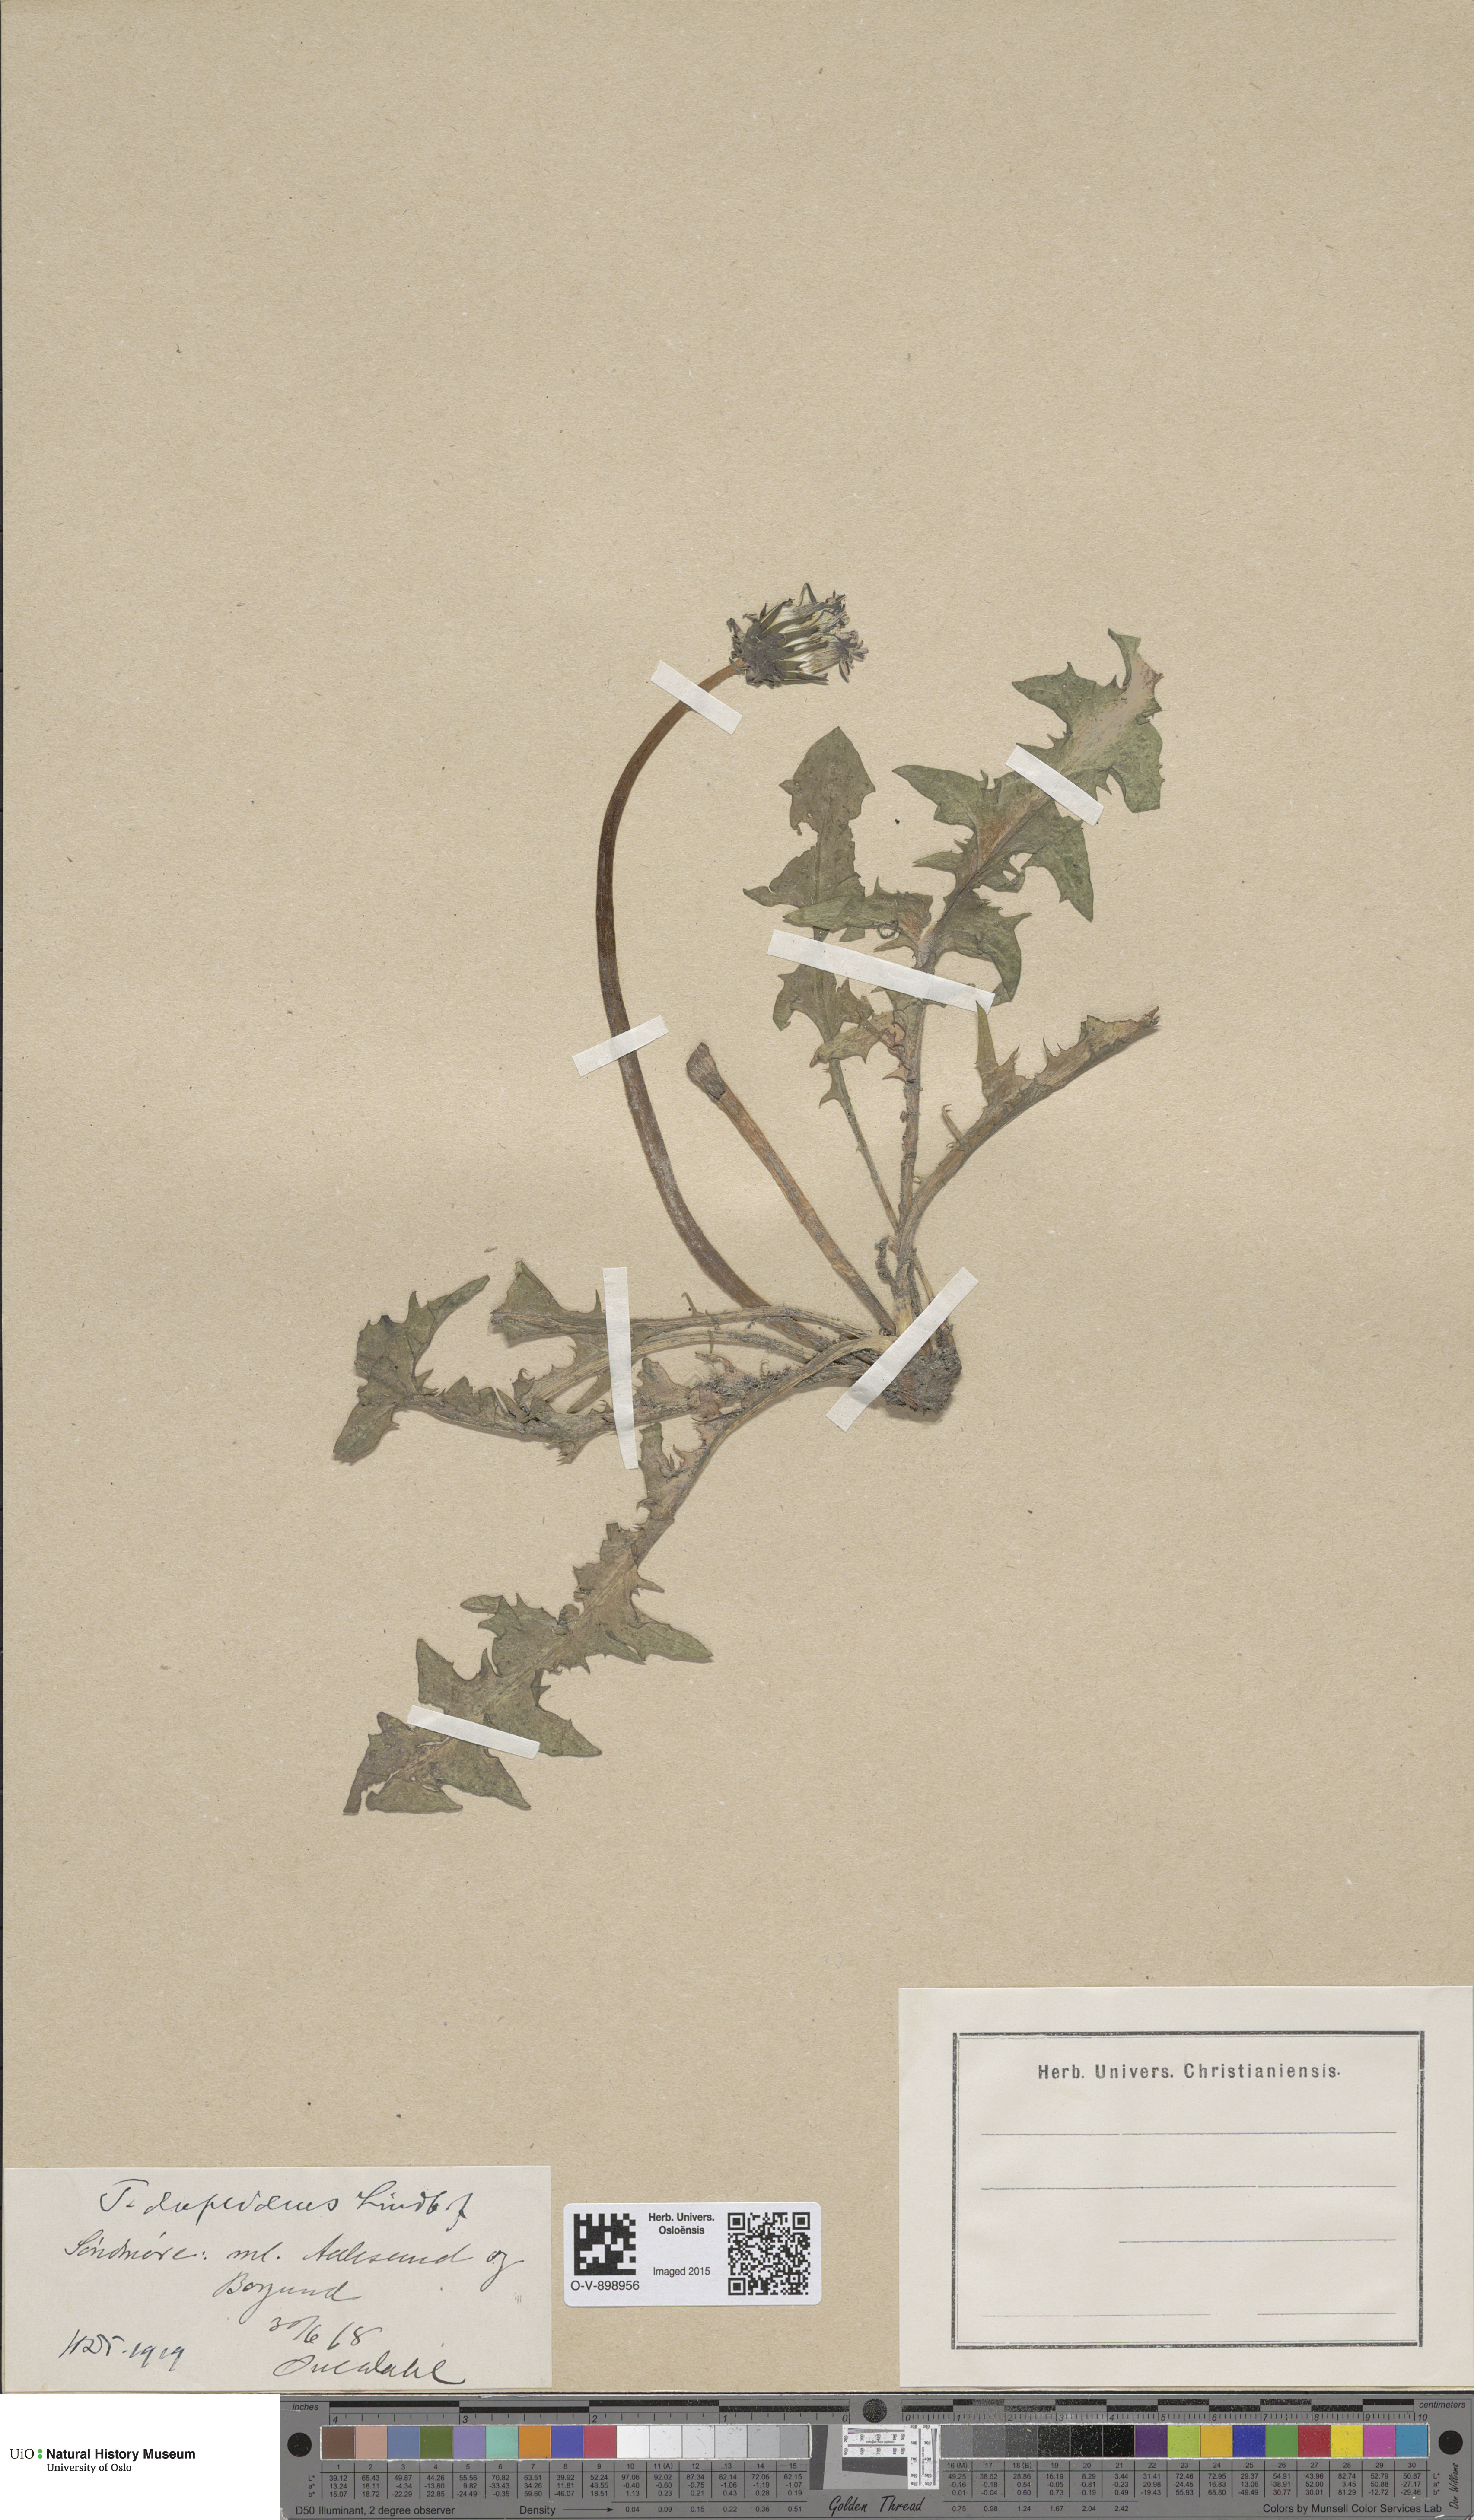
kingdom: Plantae
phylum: Tracheophyta
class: Magnoliopsida
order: Asterales
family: Asteraceae
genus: Taraxacum
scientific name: Taraxacum ostenfeldii
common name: Ostenfeld's dandelion
